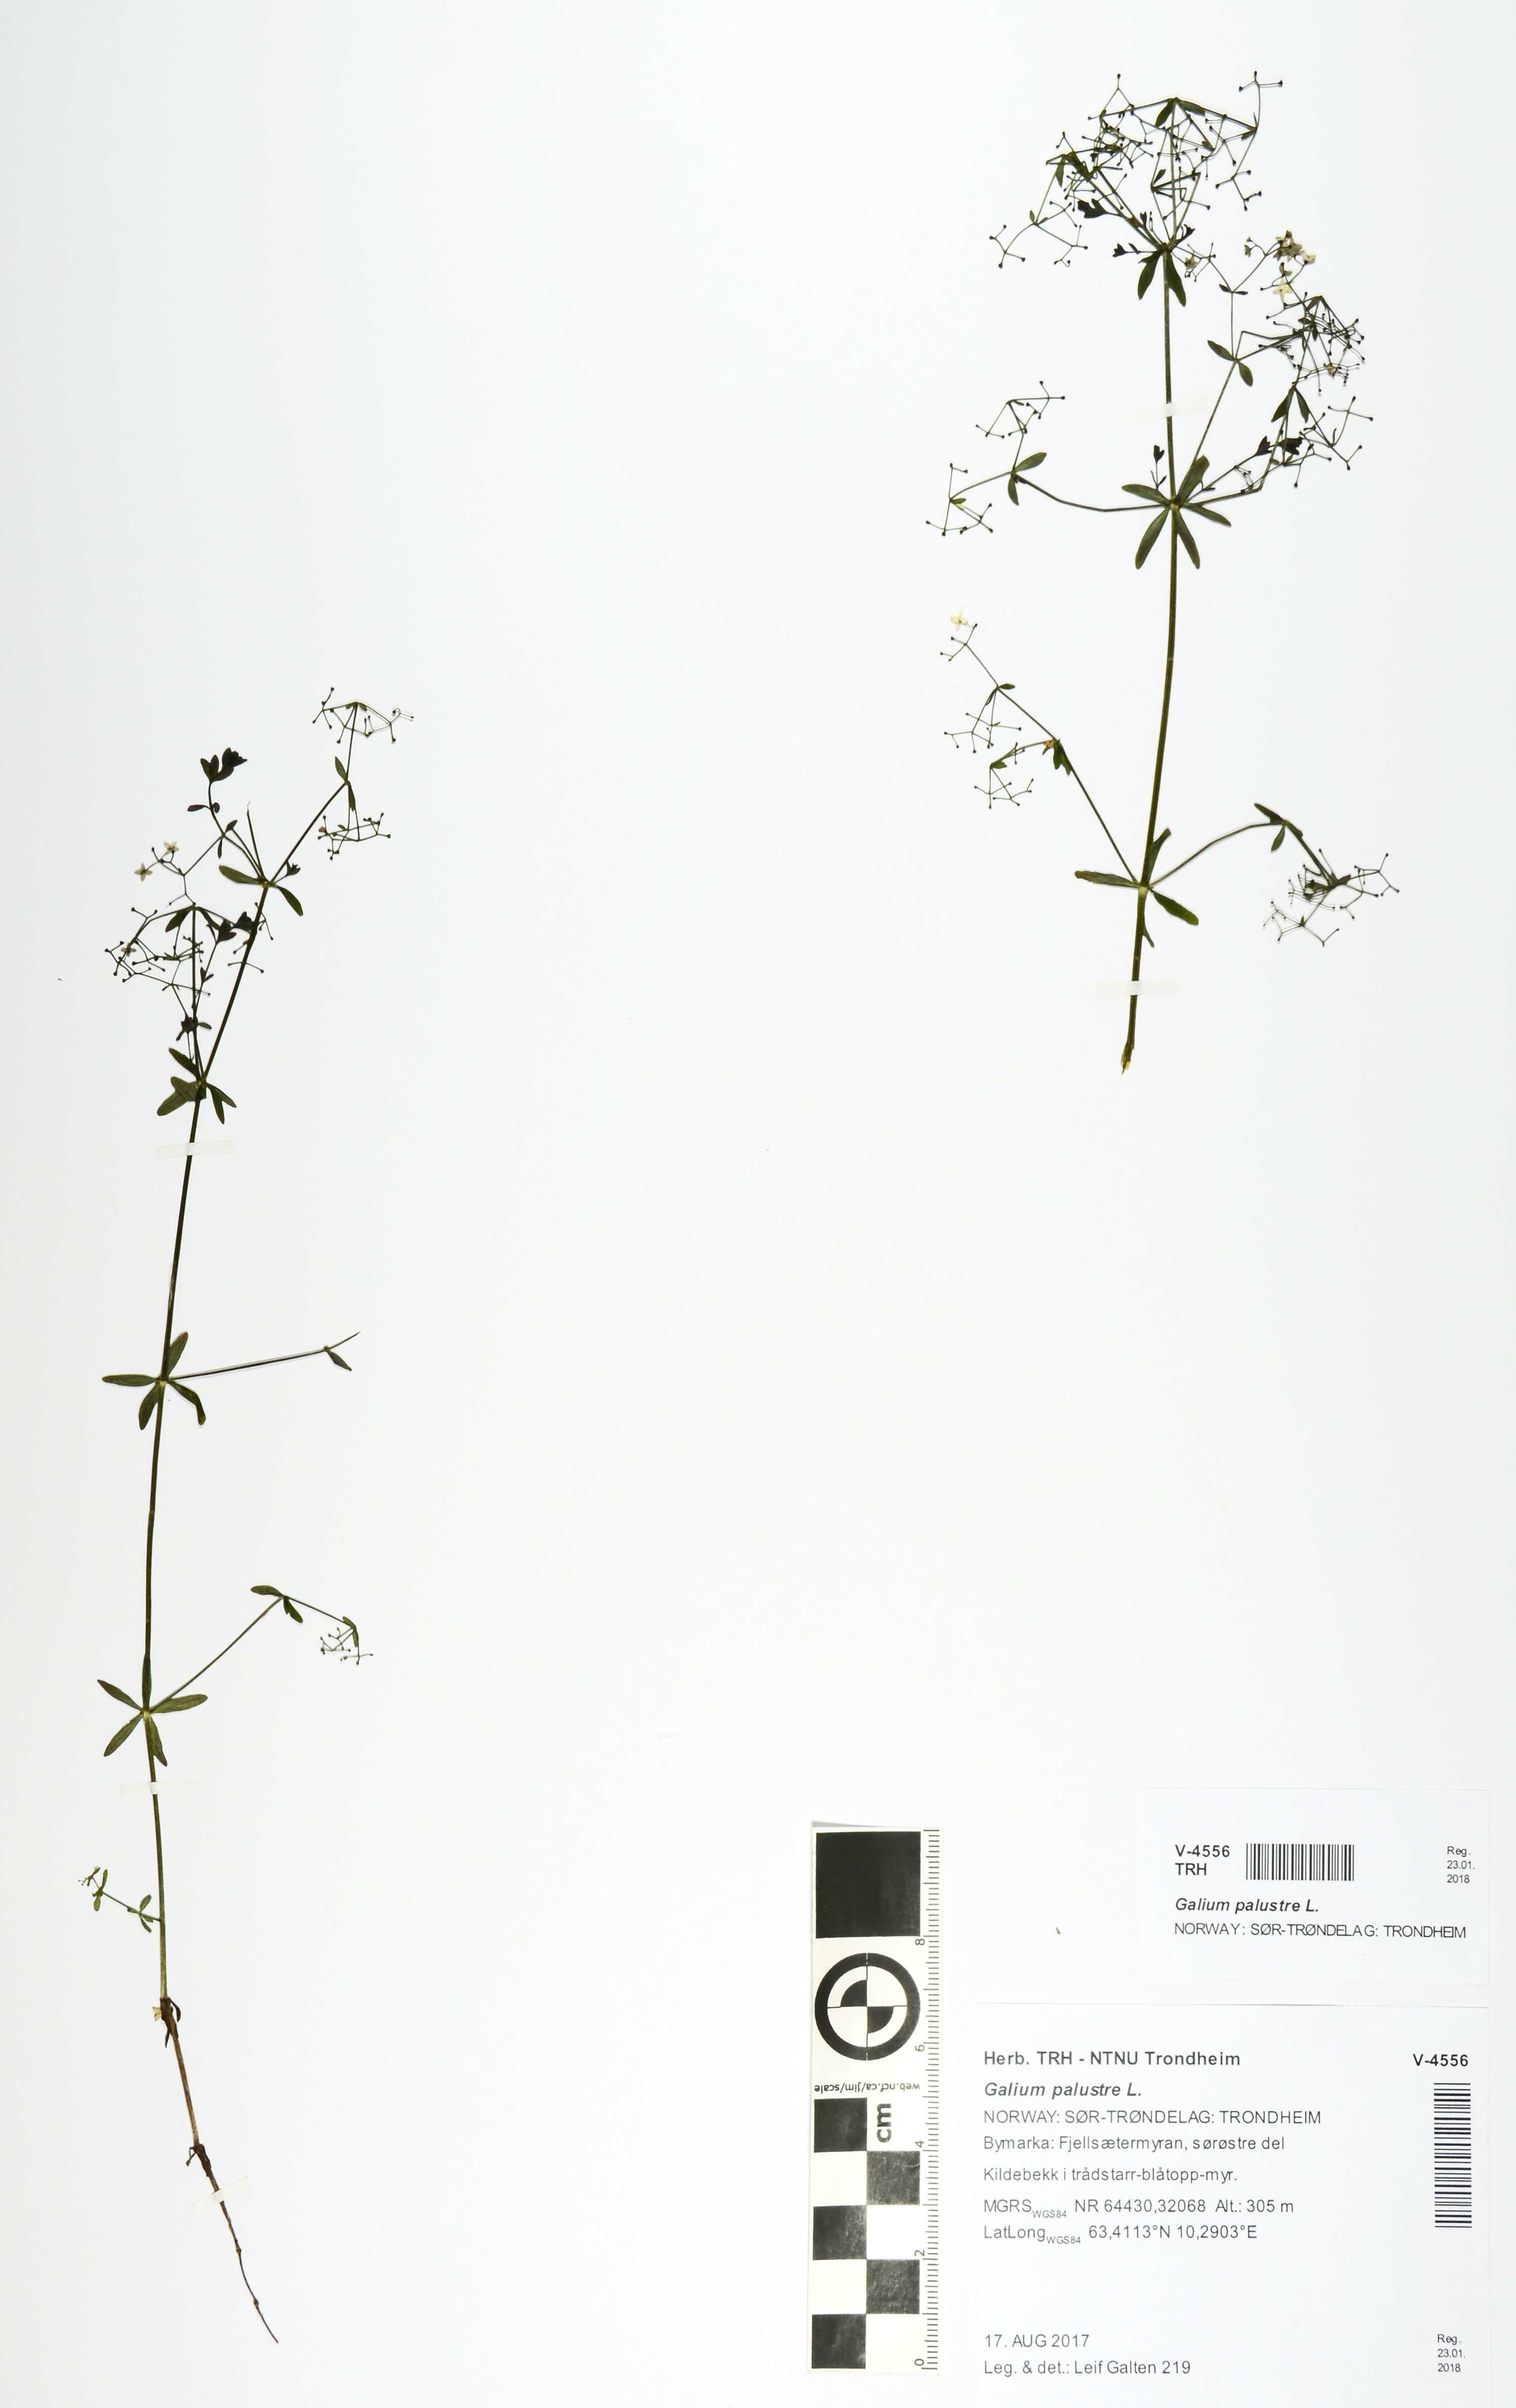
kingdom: Plantae
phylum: Tracheophyta
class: Magnoliopsida
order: Gentianales
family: Rubiaceae
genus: Galium
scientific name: Galium palustre
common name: Common marsh-bedstraw
